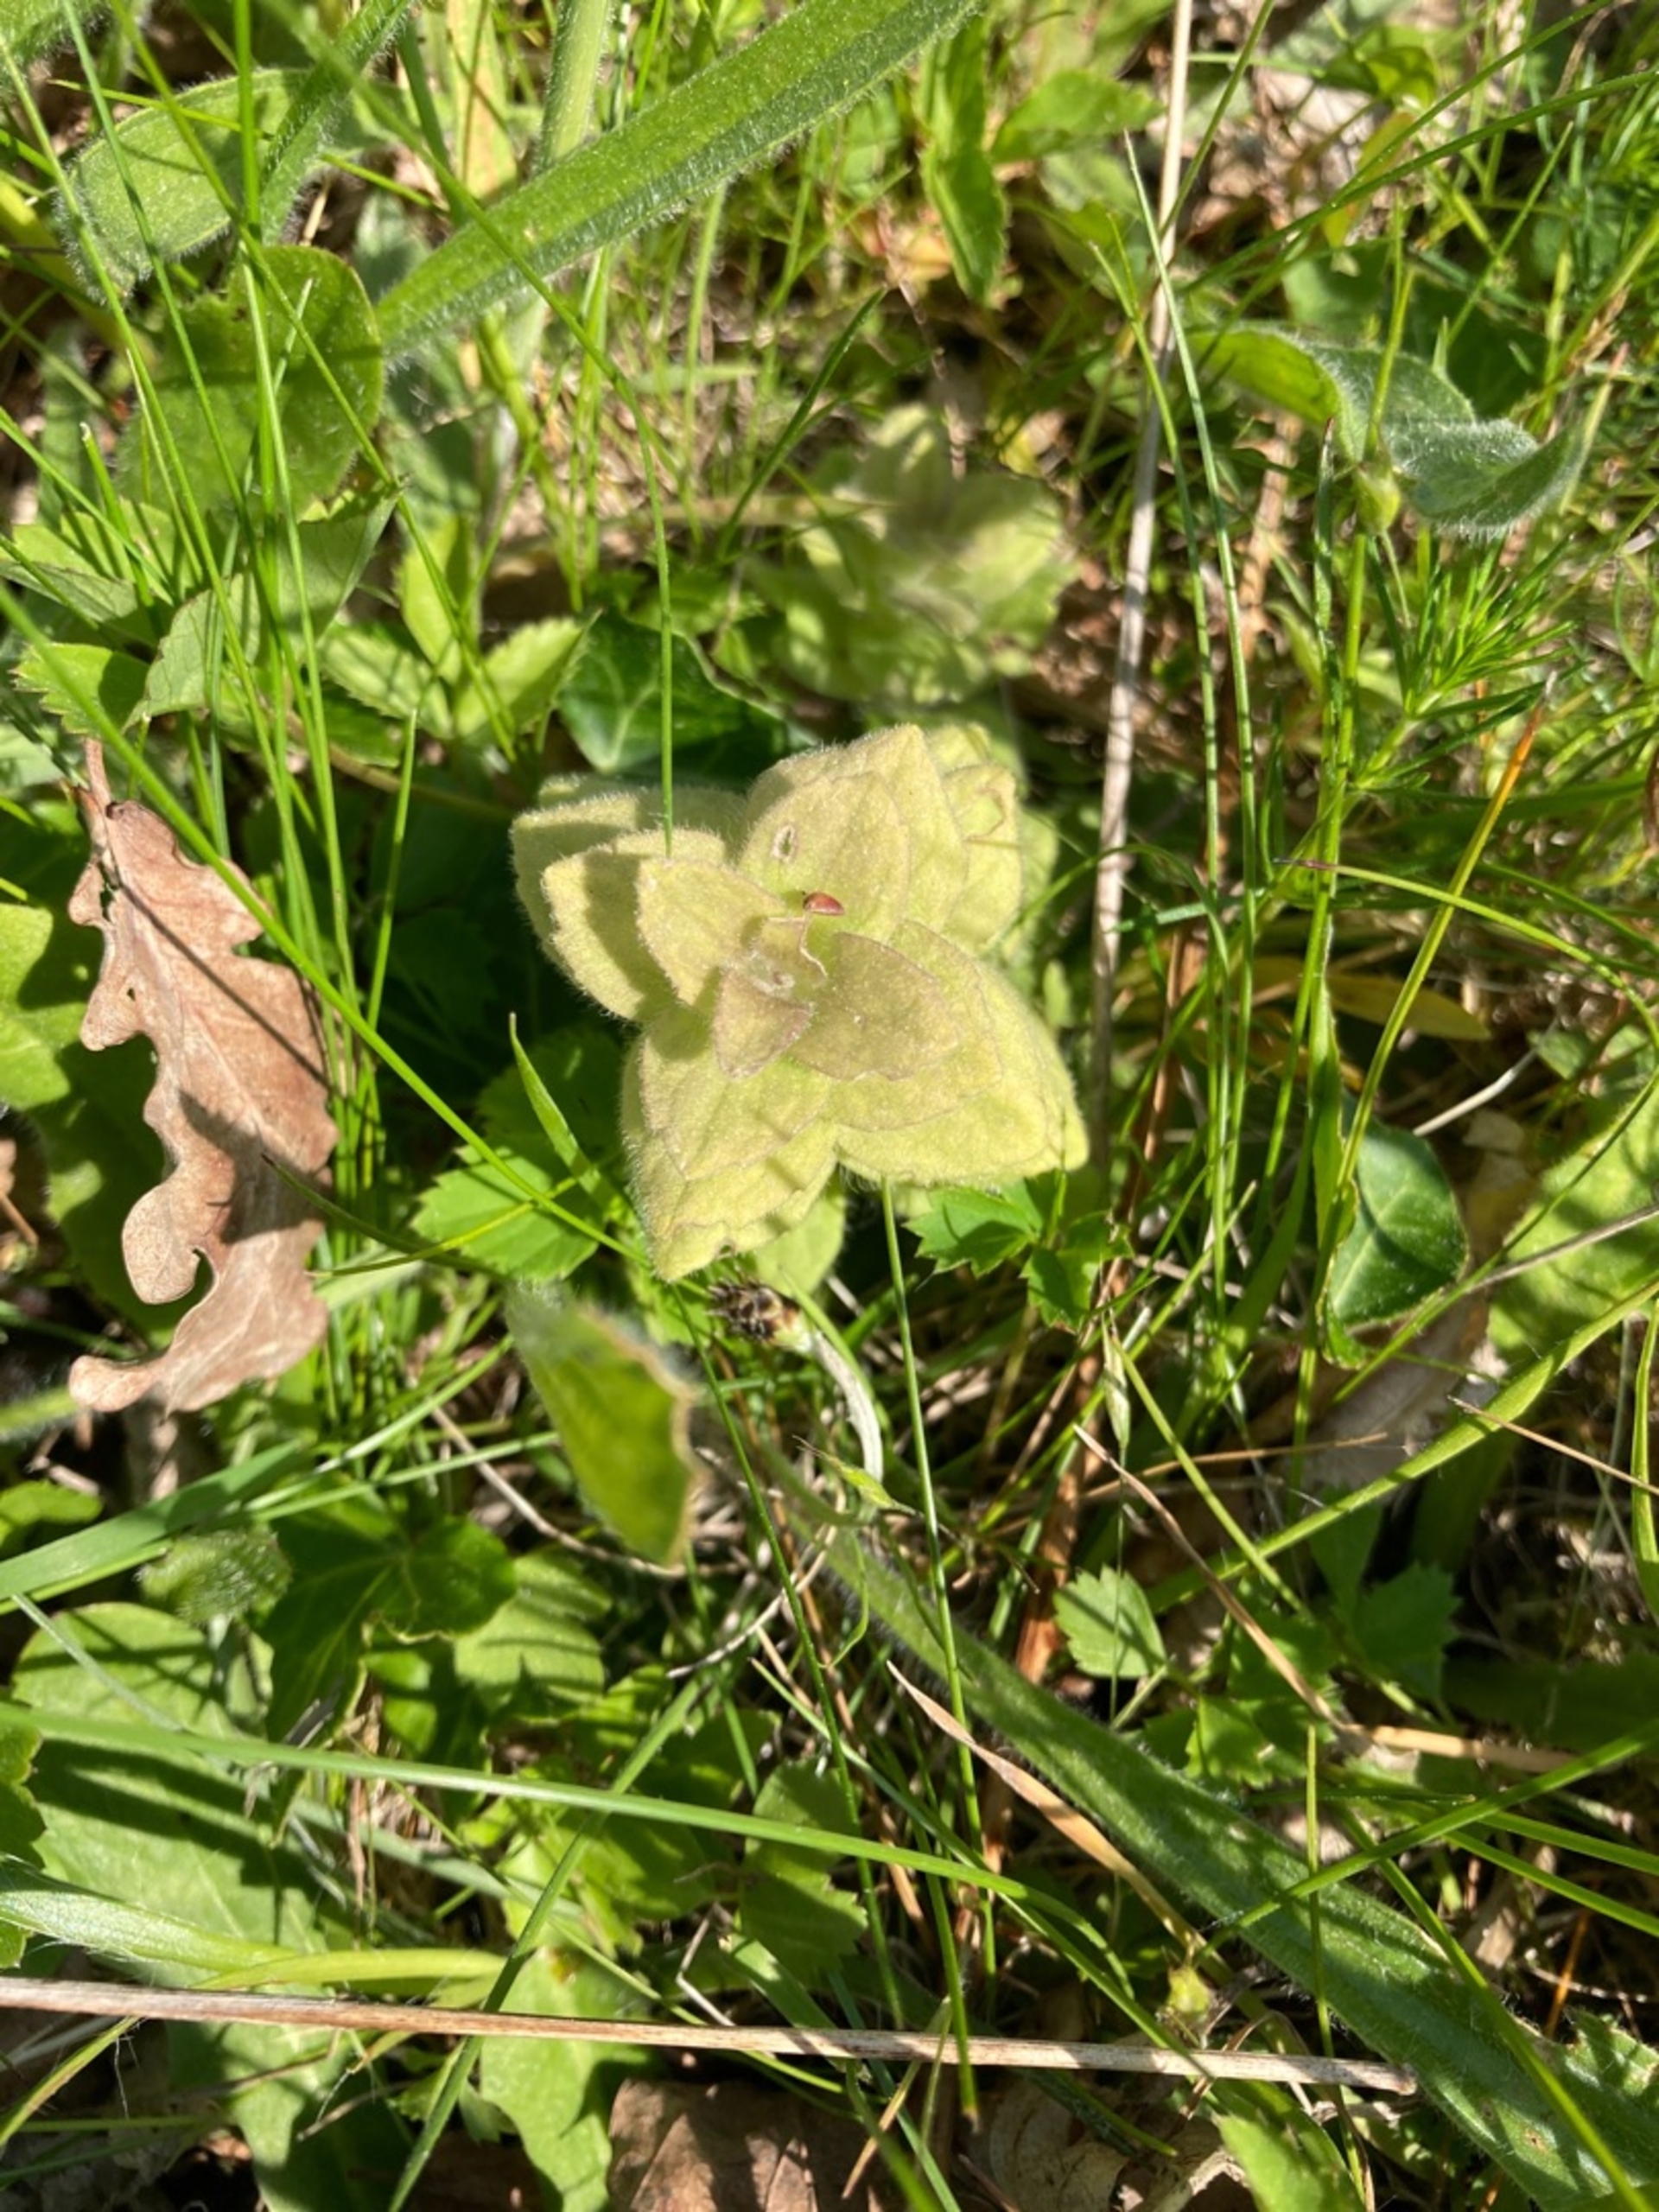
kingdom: Plantae
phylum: Tracheophyta
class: Magnoliopsida
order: Lamiales
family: Lamiaceae
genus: Ajuga
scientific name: Ajuga pyramidalis
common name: Pyramide-læbeløs
